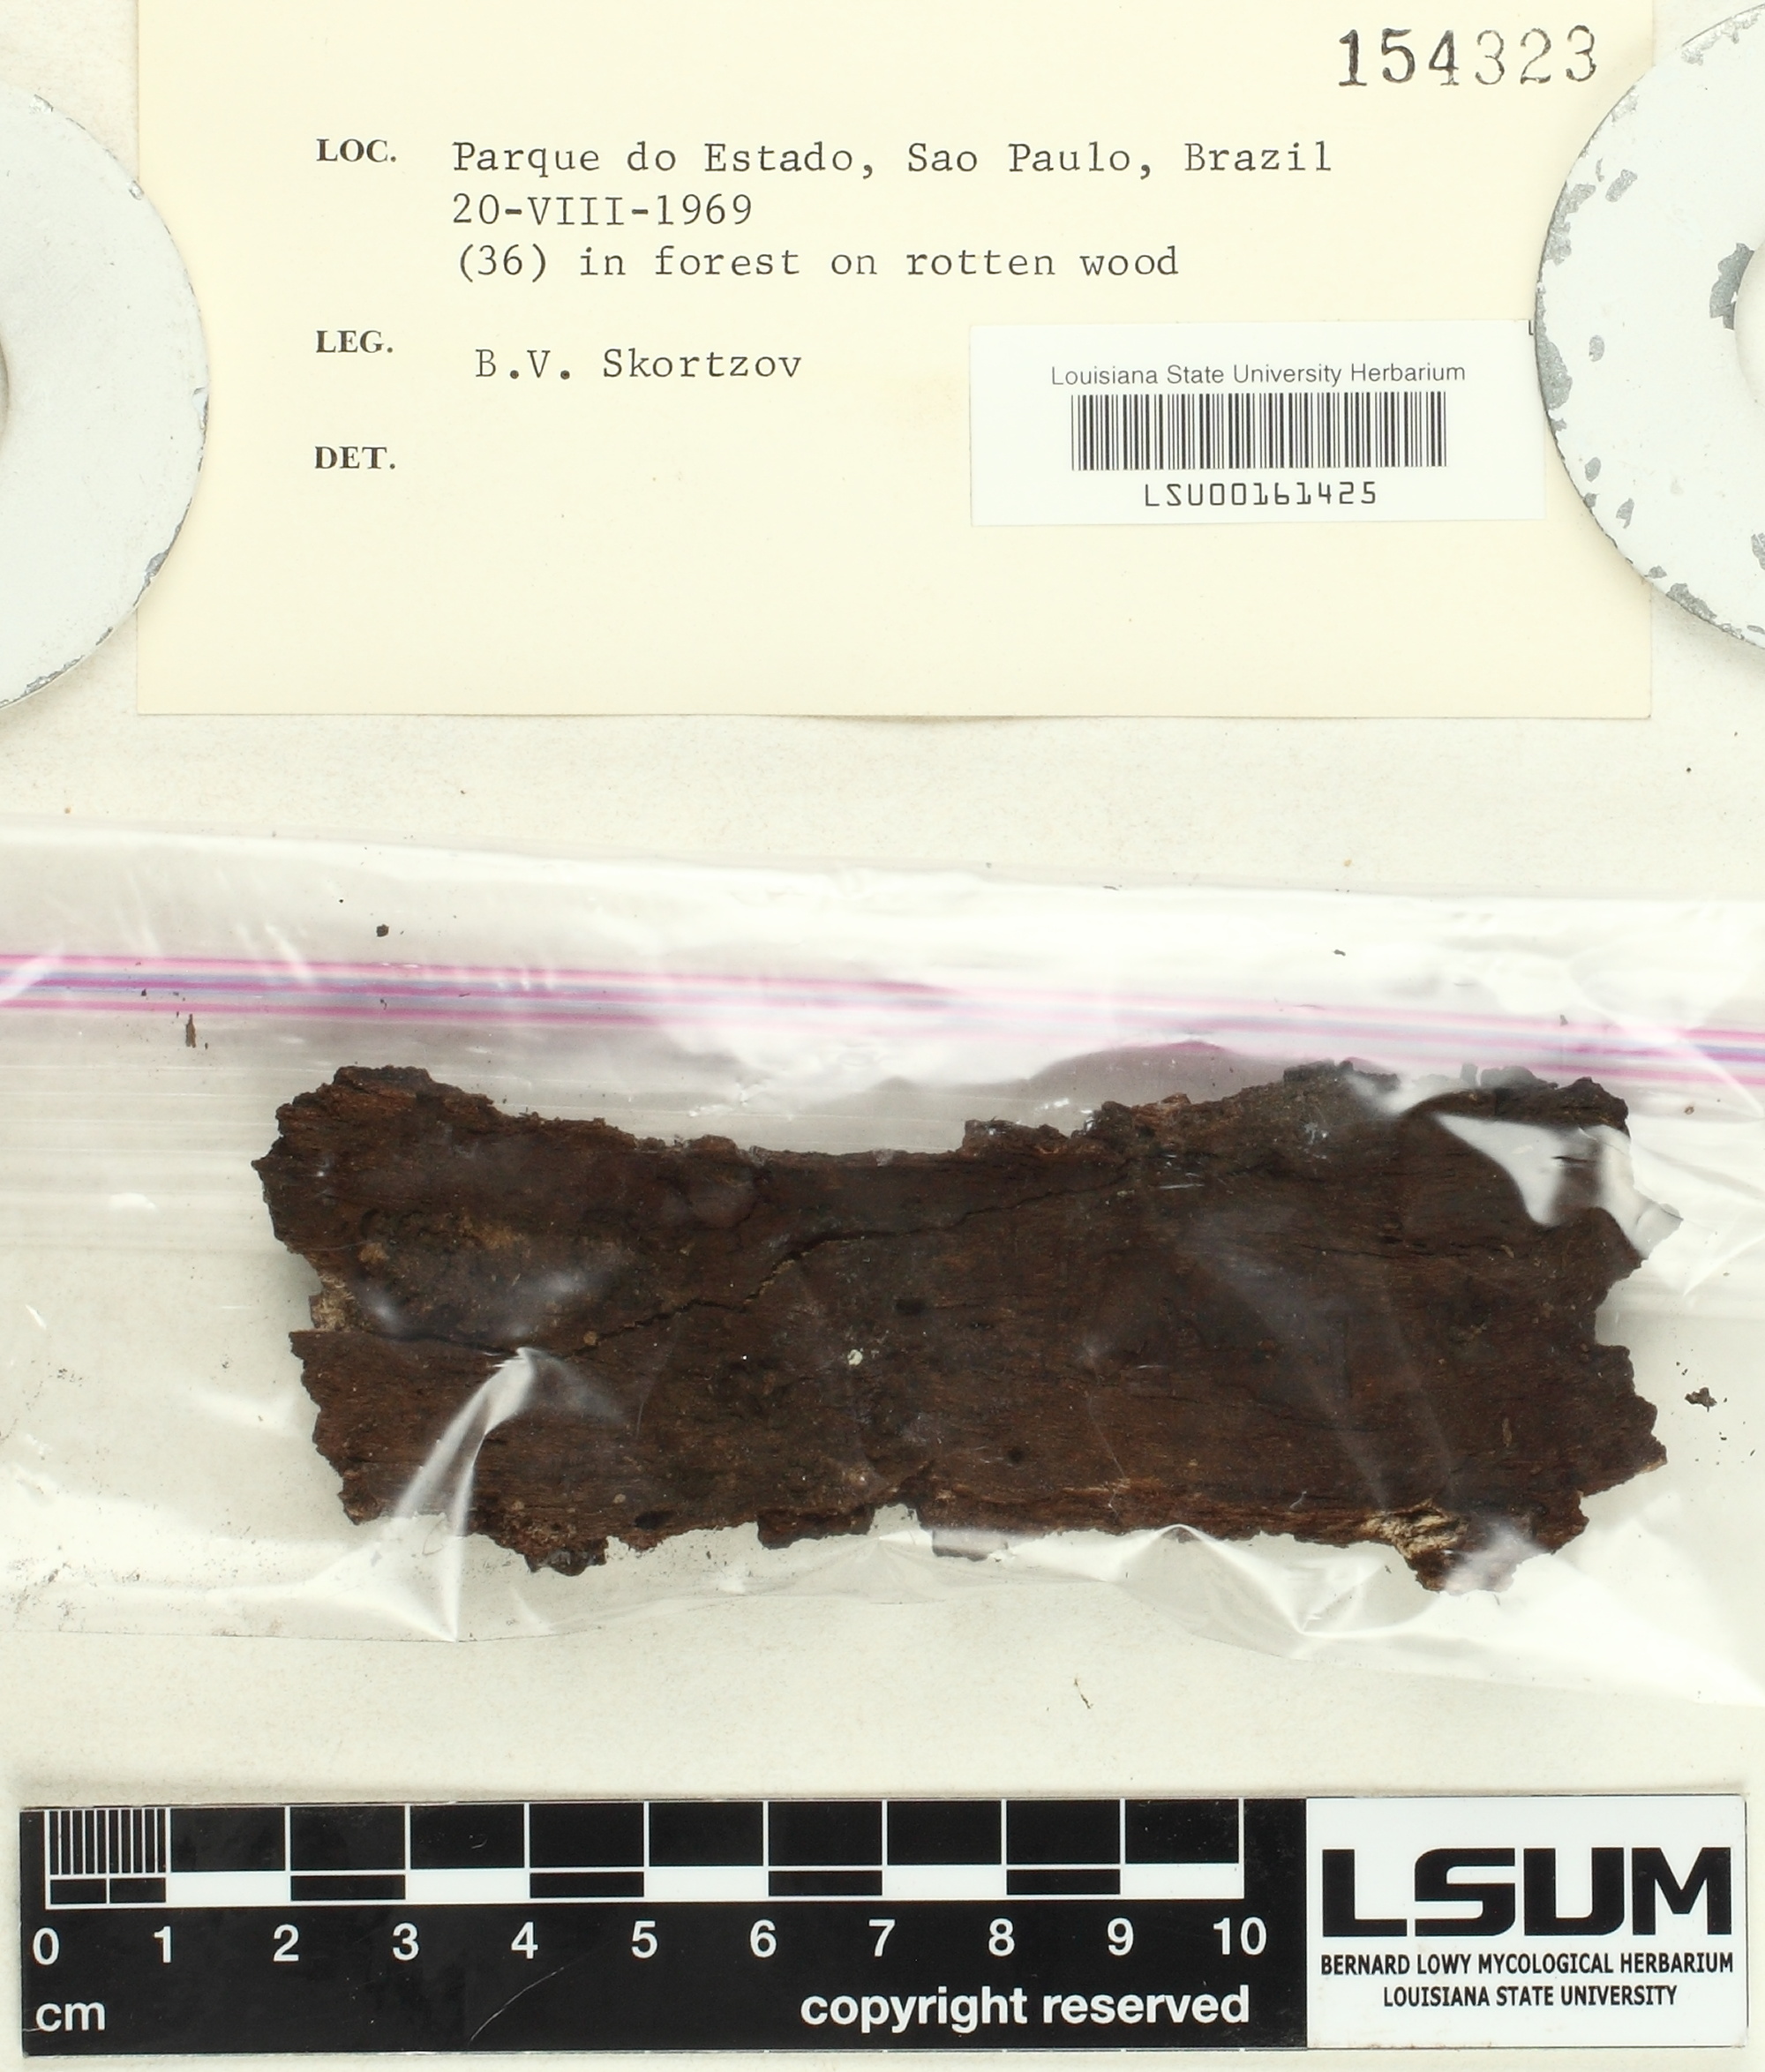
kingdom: Fungi
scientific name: Fungi
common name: Fungi
